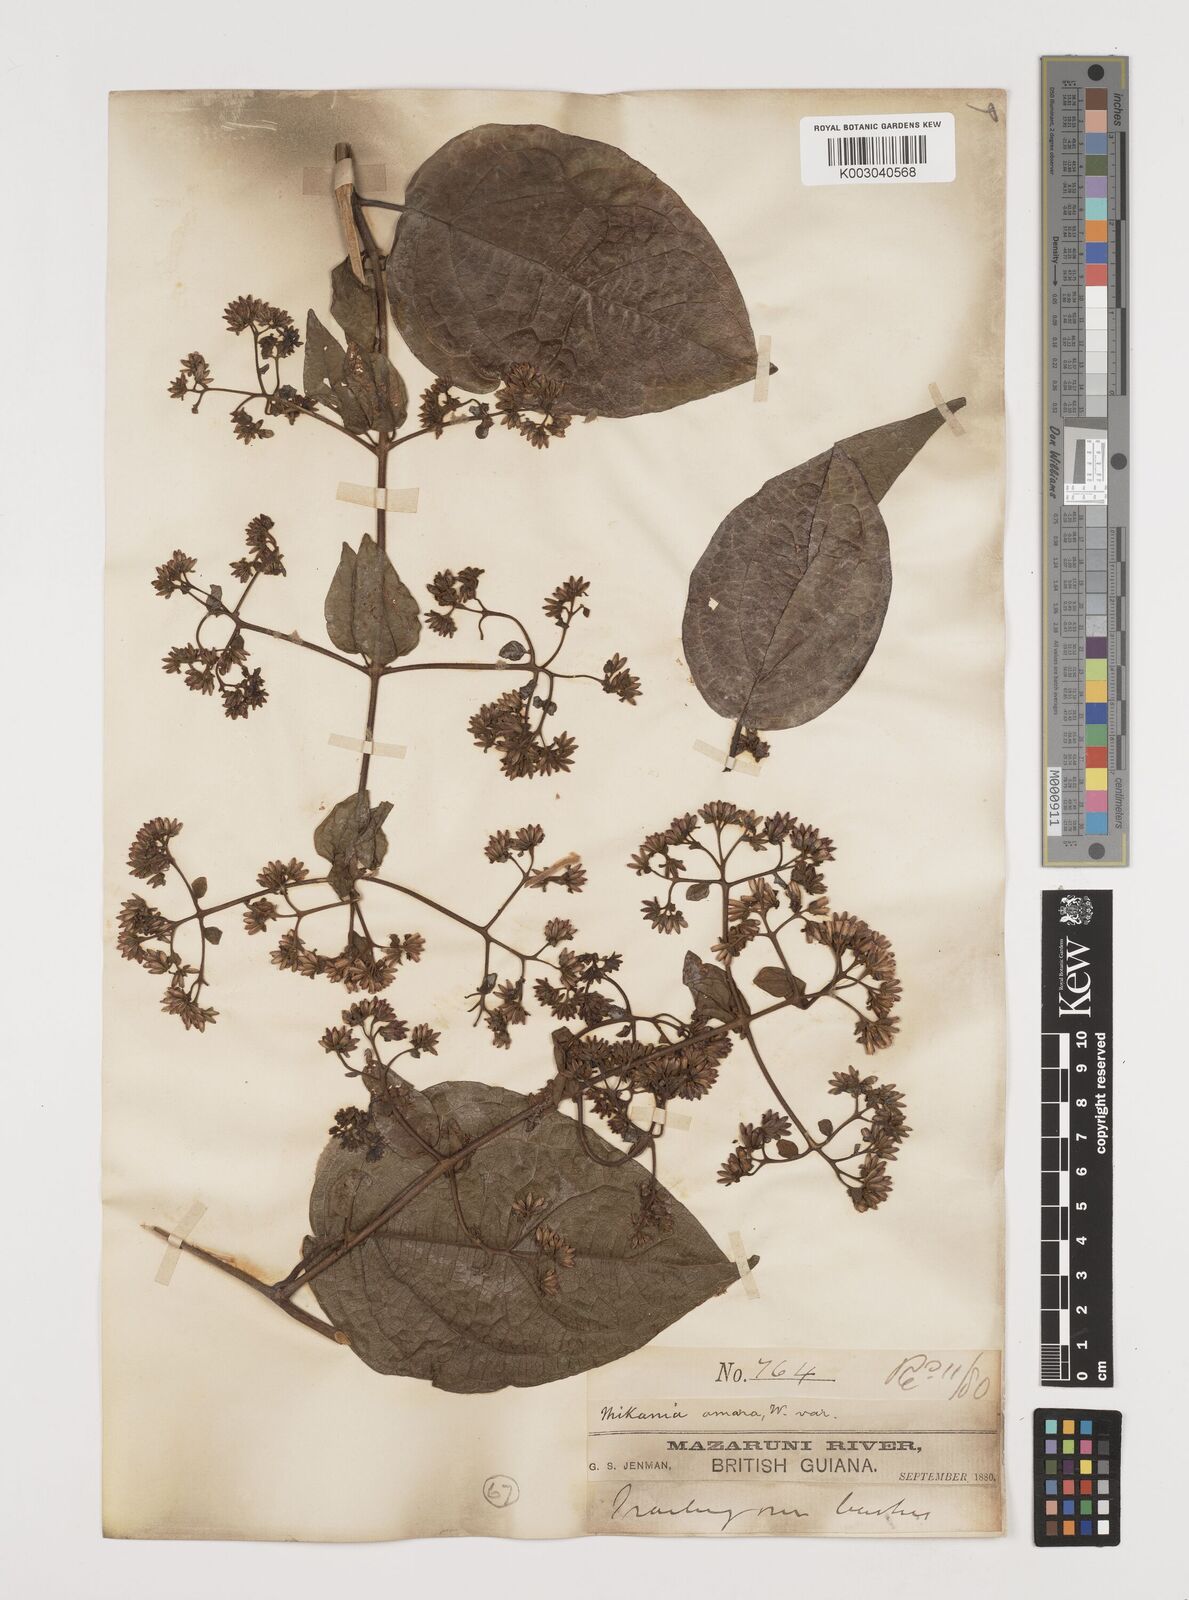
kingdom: Plantae
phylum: Tracheophyta
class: Magnoliopsida
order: Asterales
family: Asteraceae
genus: Mikania
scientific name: Mikania parviflora
